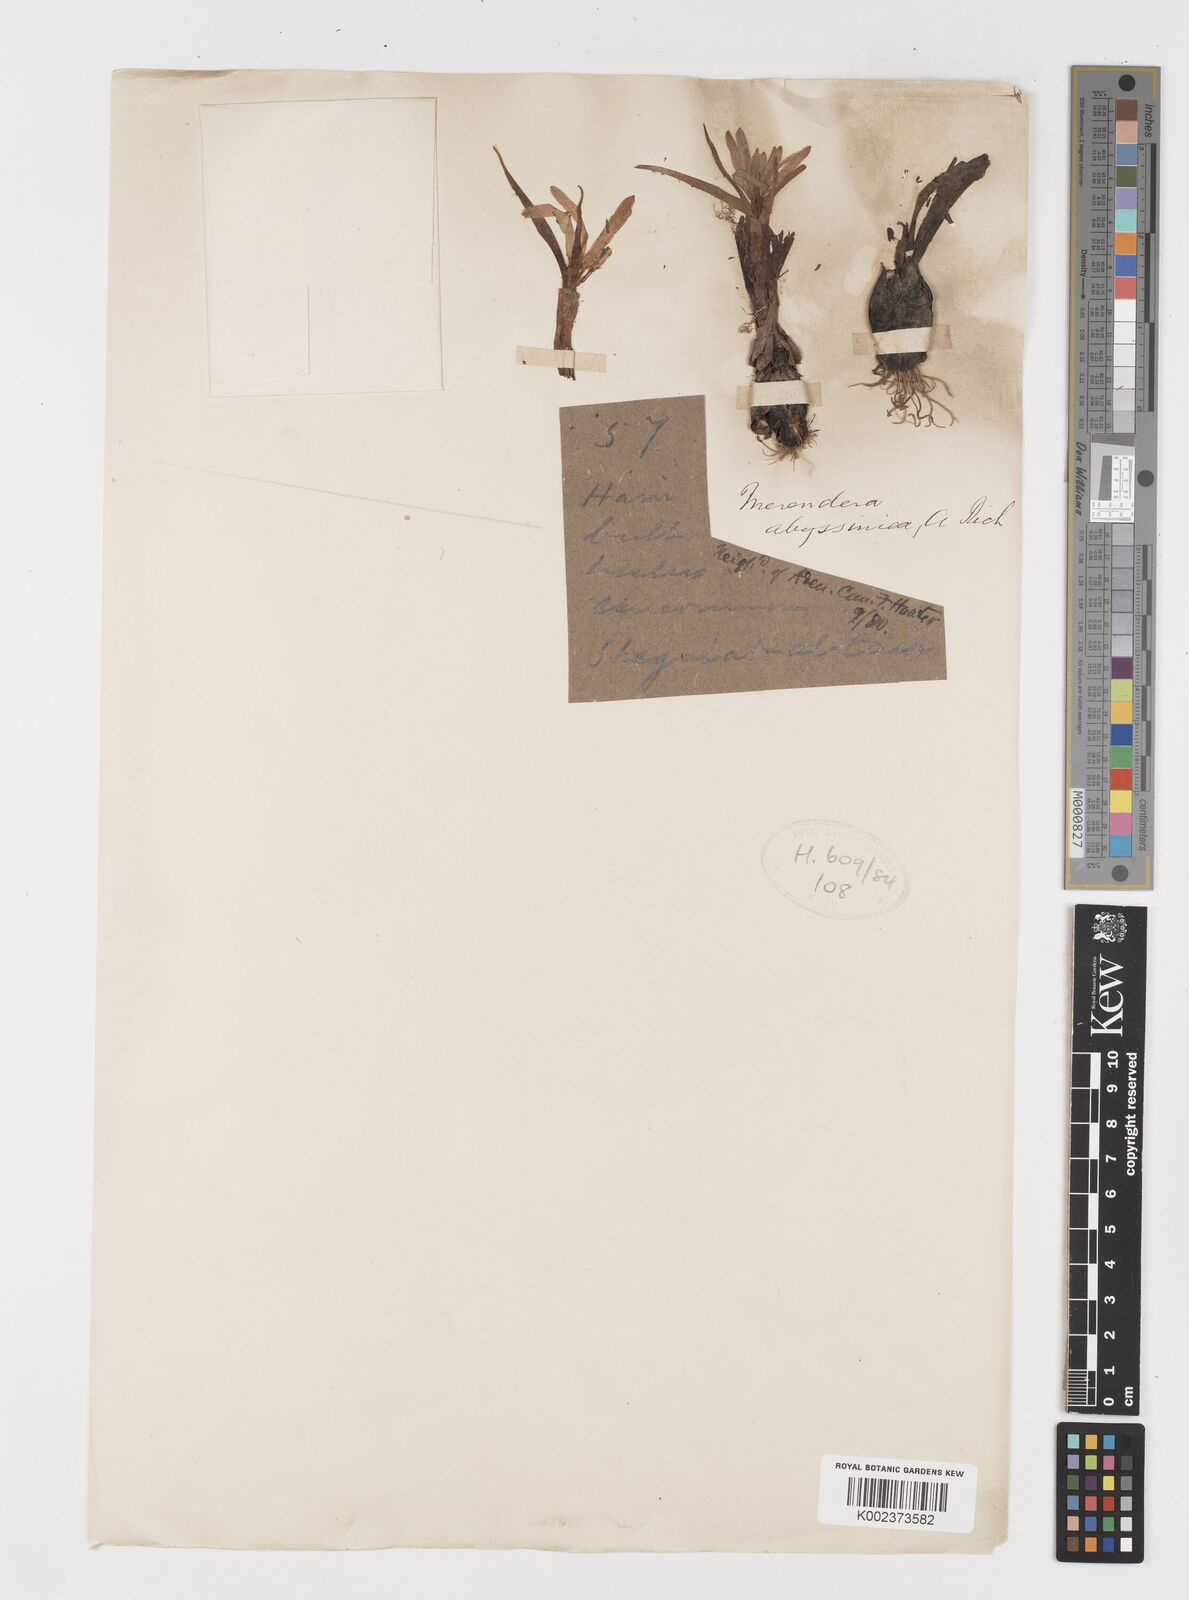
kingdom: Plantae
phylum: Tracheophyta
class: Liliopsida
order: Liliales
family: Colchicaceae
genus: Colchicum
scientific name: Colchicum schimperi
